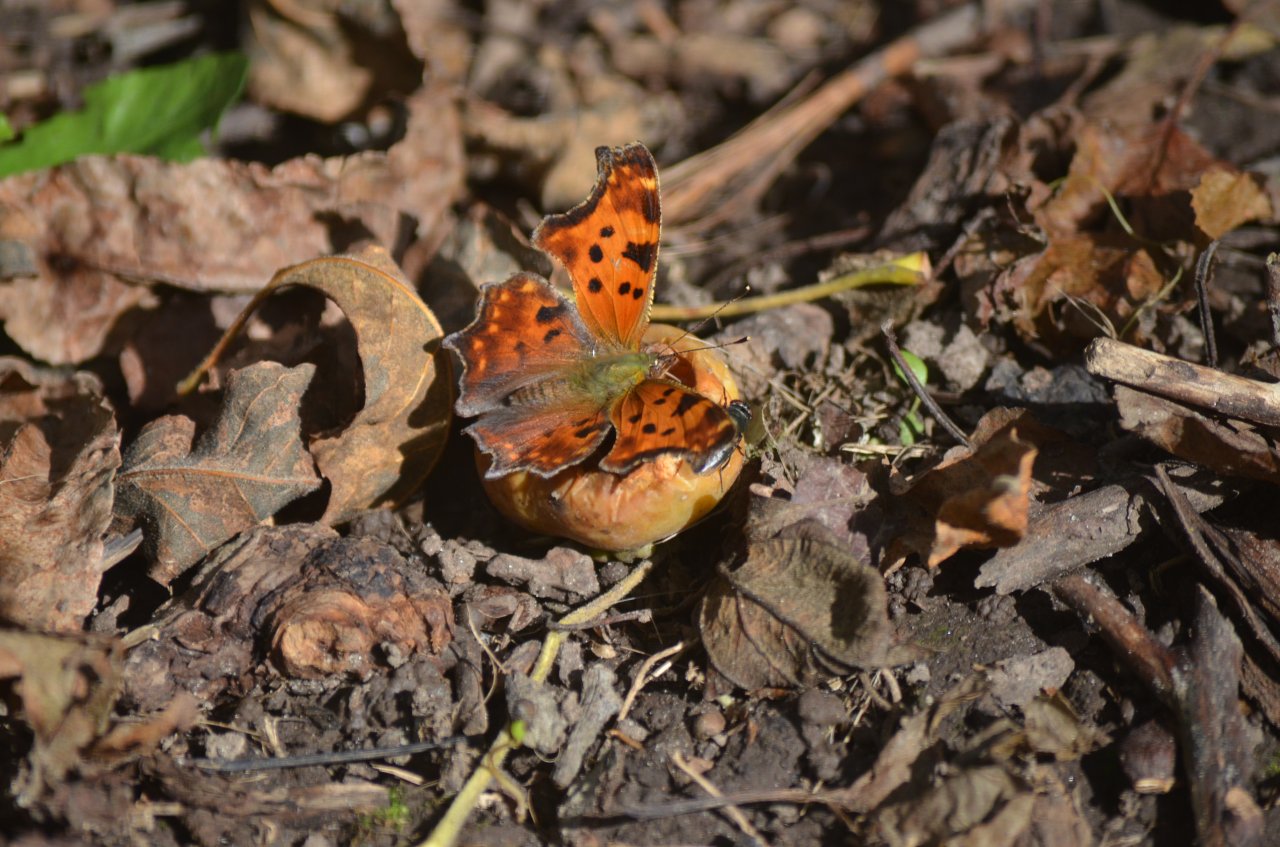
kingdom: Animalia
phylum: Arthropoda
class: Insecta
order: Lepidoptera
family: Nymphalidae
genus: Polygonia
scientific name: Polygonia comma
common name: Eastern Comma
